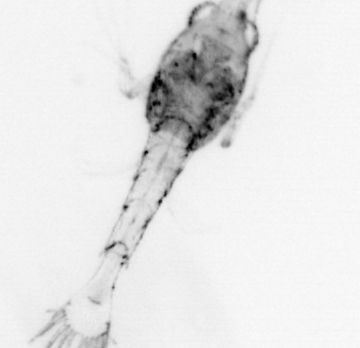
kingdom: Animalia
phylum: Arthropoda
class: Malacostraca
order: Decapoda
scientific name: Decapoda
